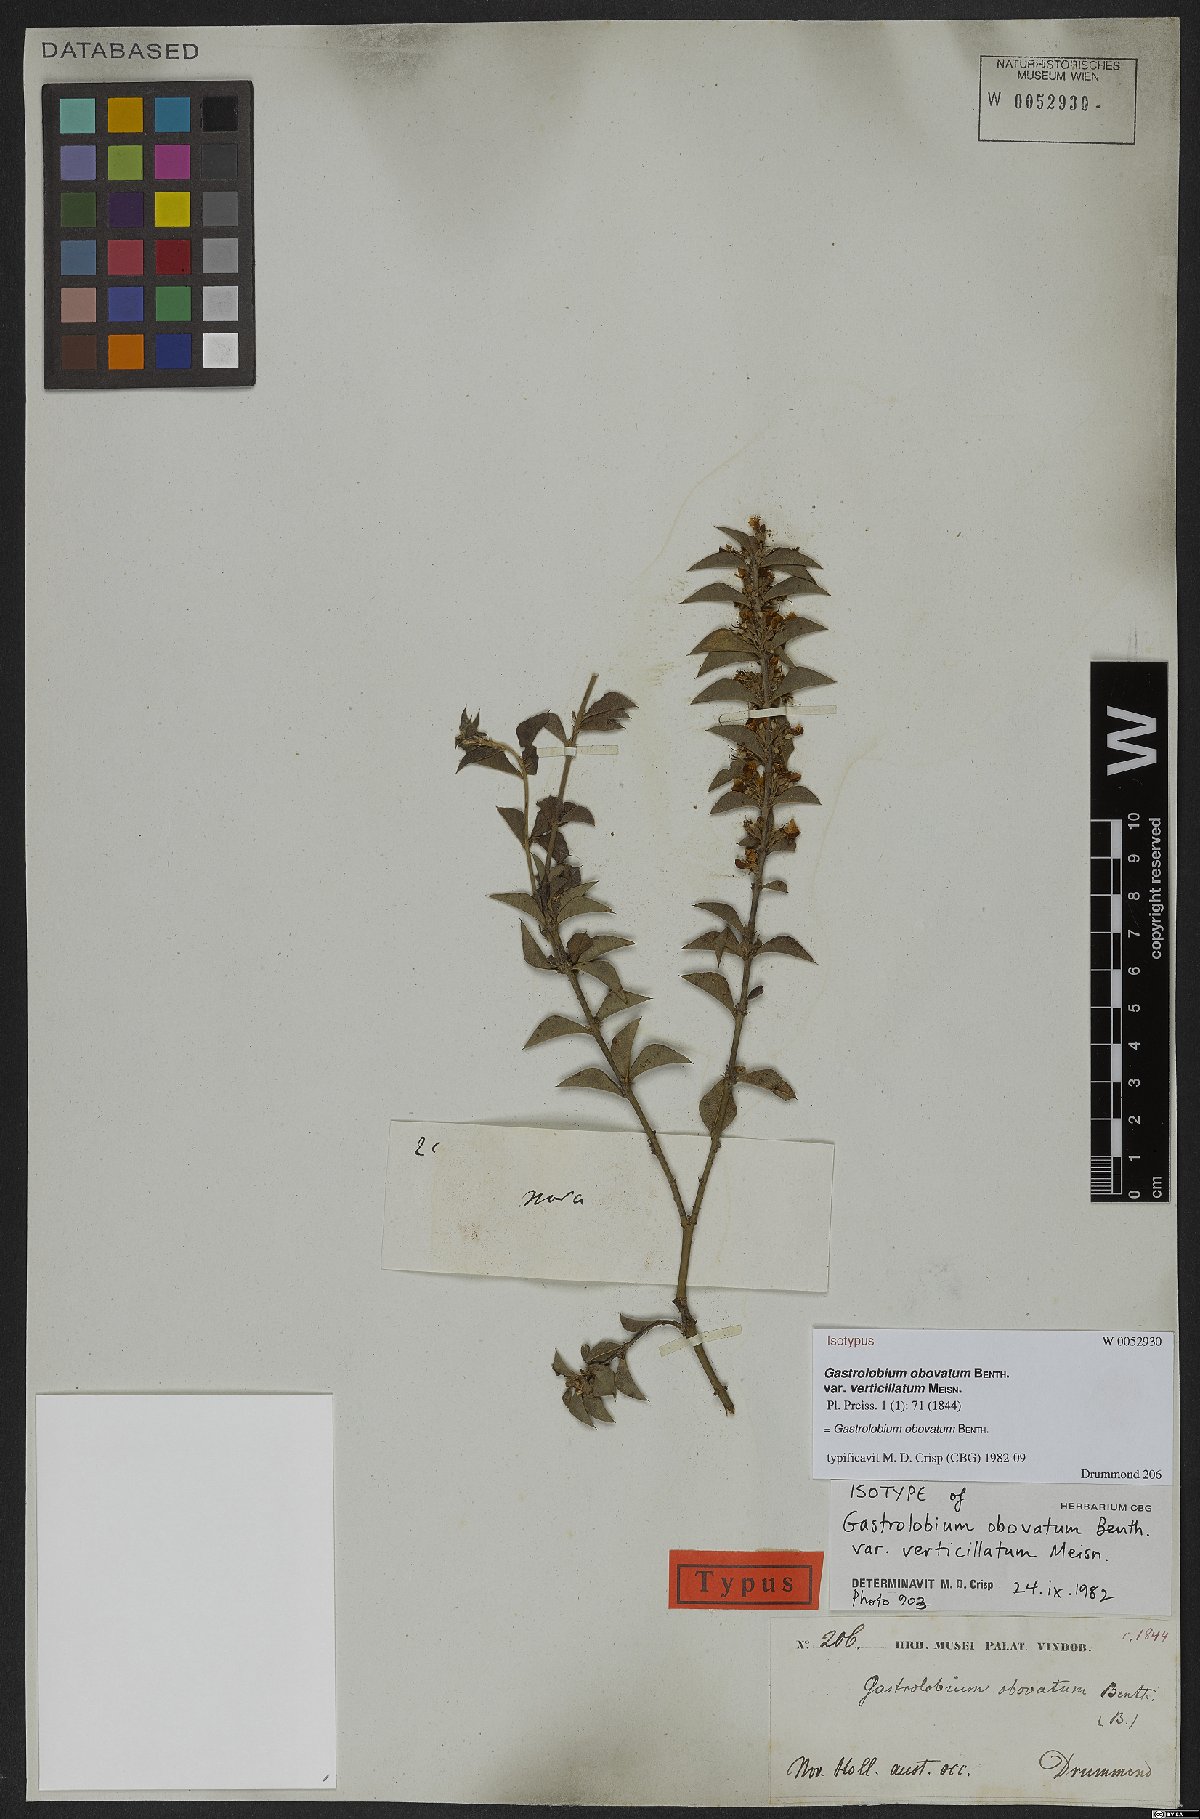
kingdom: Plantae
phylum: Tracheophyta
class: Magnoliopsida
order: Fabales
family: Fabaceae
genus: Gastrolobium
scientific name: Gastrolobium obovatum
